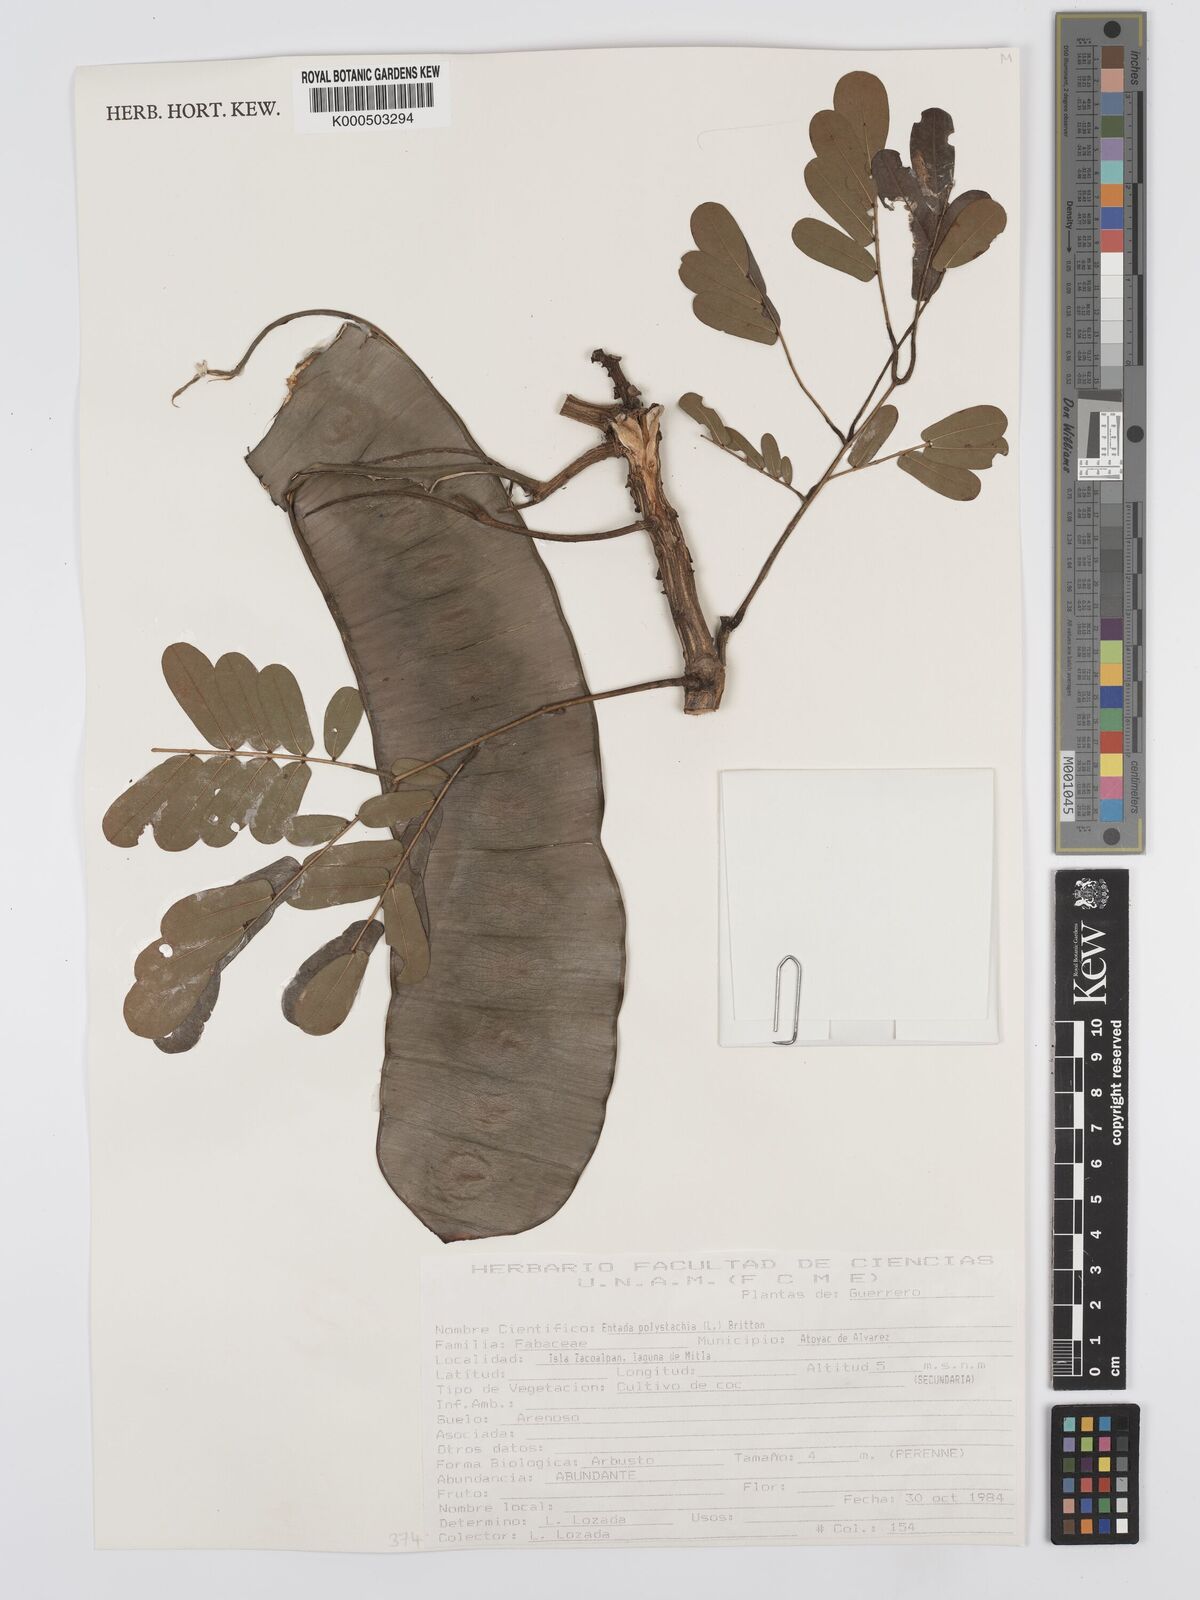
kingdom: Plantae
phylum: Tracheophyta
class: Magnoliopsida
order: Fabales
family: Fabaceae
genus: Entada
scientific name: Entada polystachya
